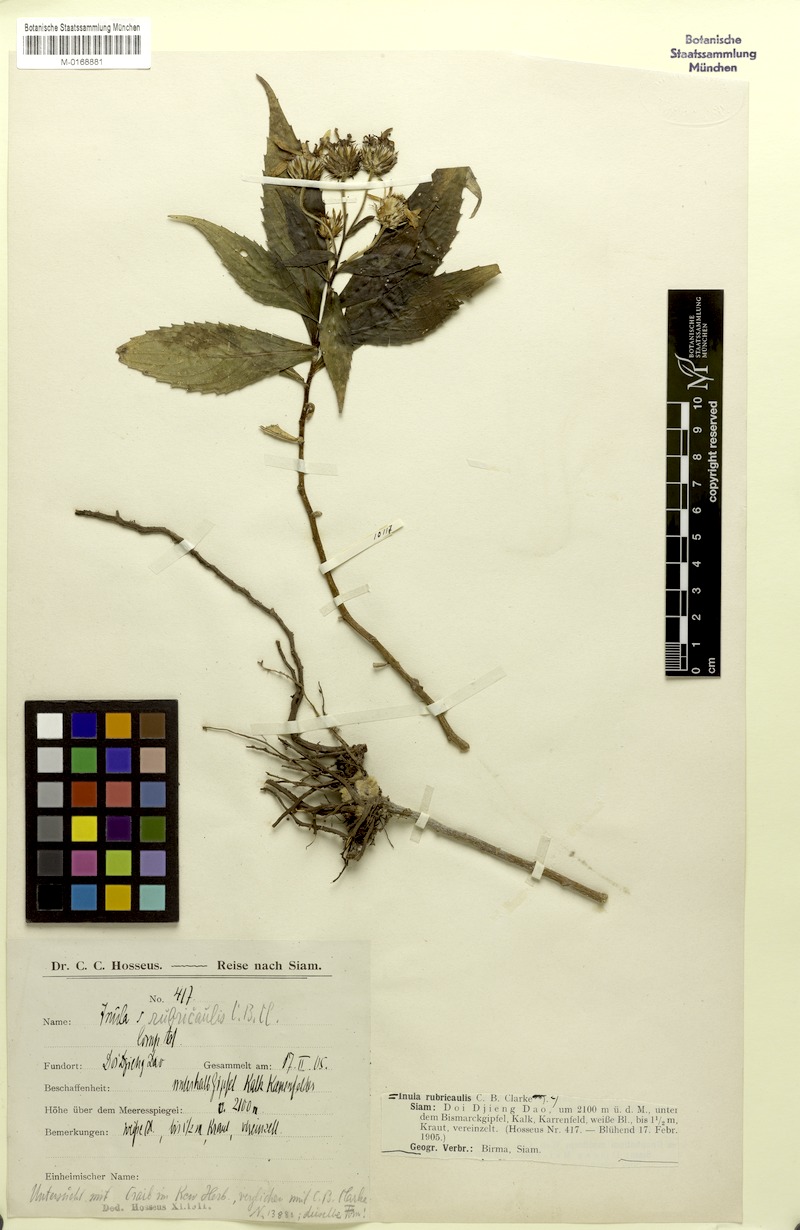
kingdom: Plantae
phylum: Tracheophyta
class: Magnoliopsida
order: Asterales
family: Asteraceae
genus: Duhaldea
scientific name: Duhaldea rubricaulis
